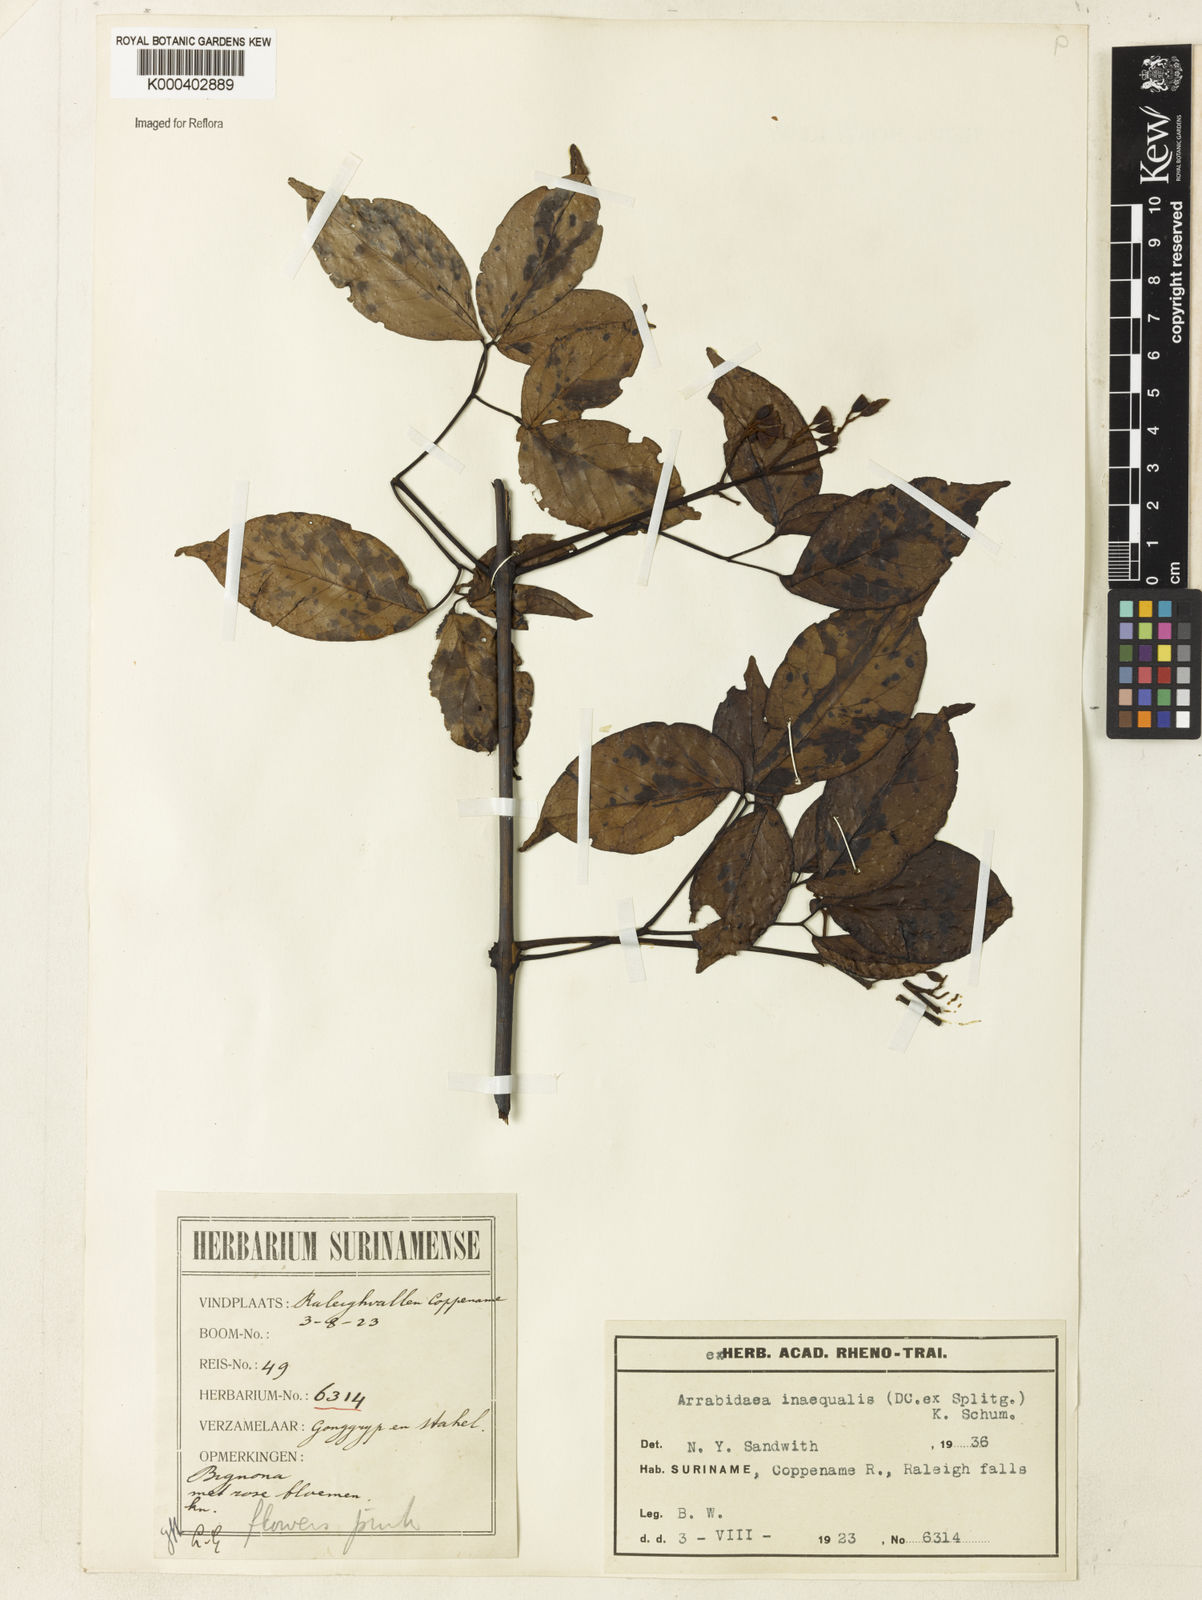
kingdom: Plantae
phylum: Tracheophyta
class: Magnoliopsida
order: Lamiales
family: Bignoniaceae
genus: Cuspidaria
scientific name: Cuspidaria inaequalis
